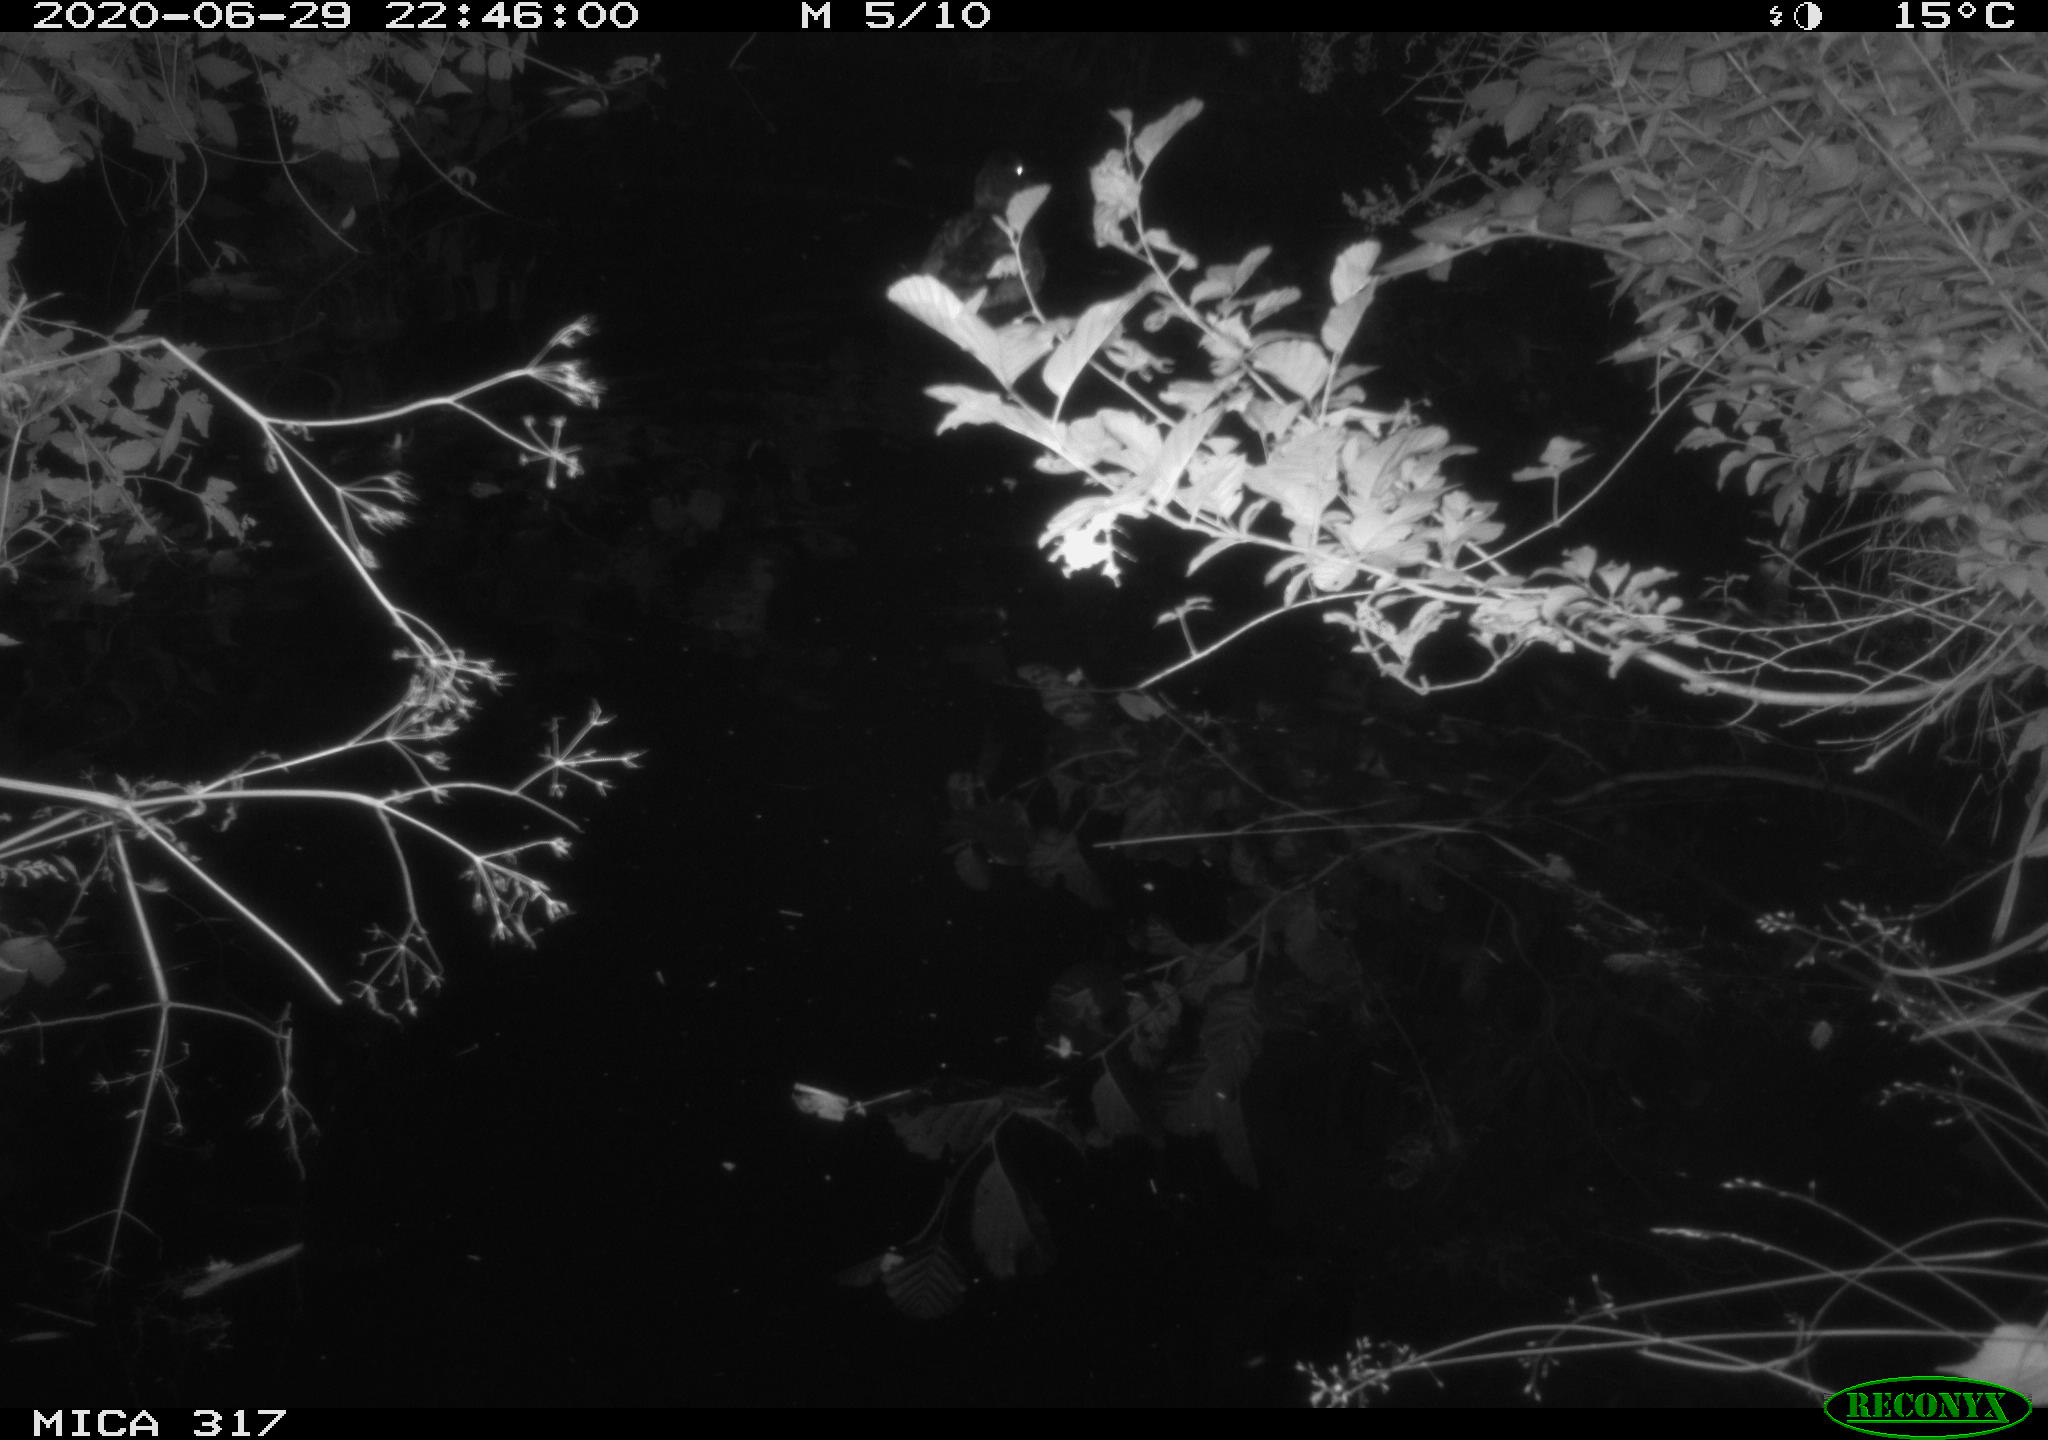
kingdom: Animalia
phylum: Chordata
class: Aves
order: Anseriformes
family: Anatidae
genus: Anas
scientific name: Anas platyrhynchos
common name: Mallard
